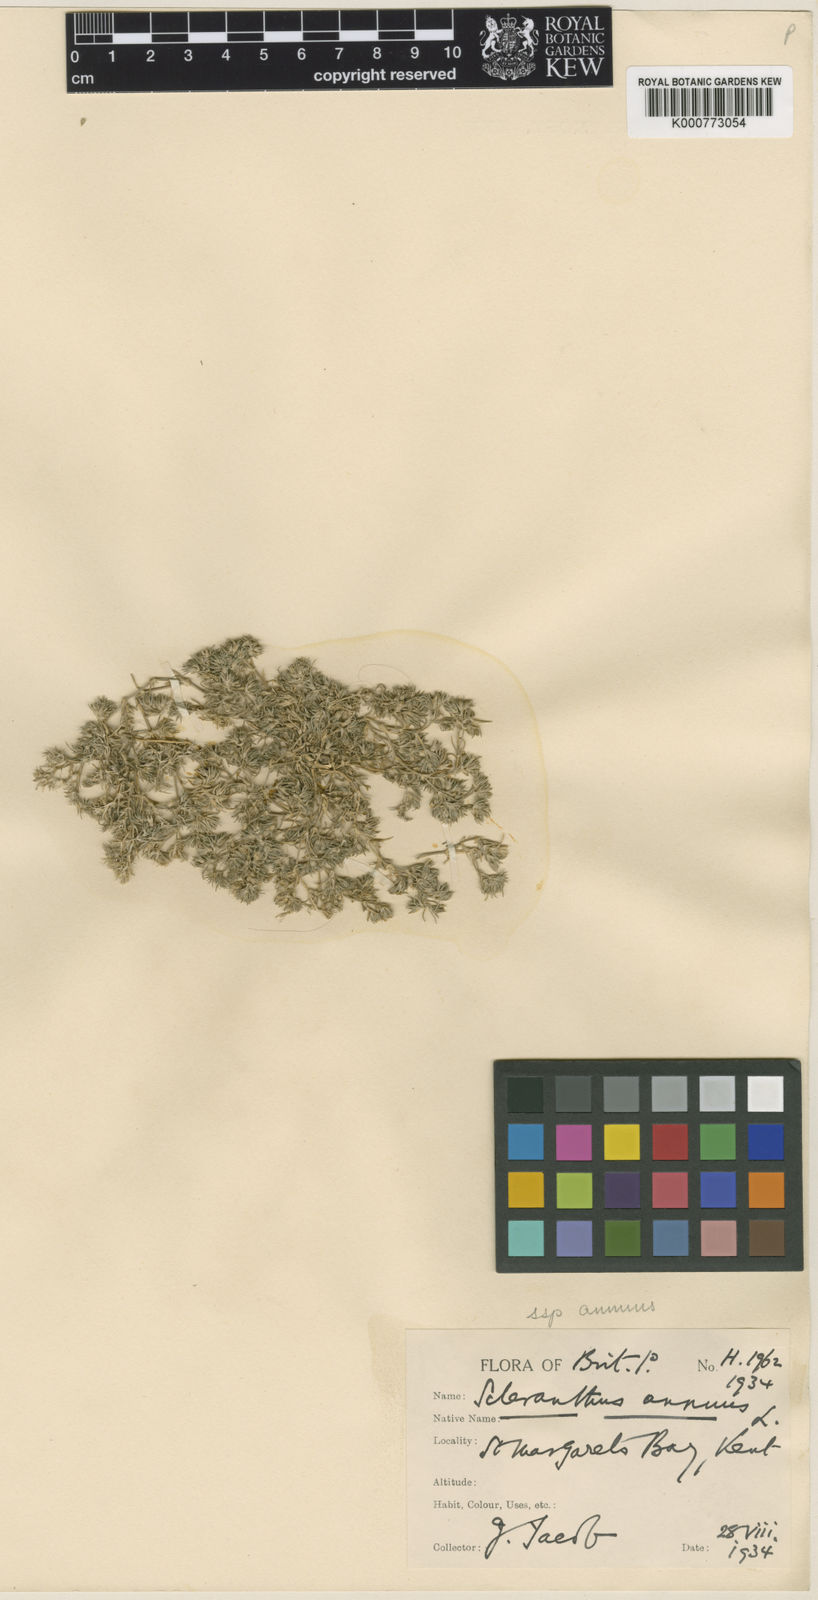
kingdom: Plantae
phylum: Tracheophyta
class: Magnoliopsida
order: Caryophyllales
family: Caryophyllaceae
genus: Scleranthus
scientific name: Scleranthus annuus
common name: Annual knawel
